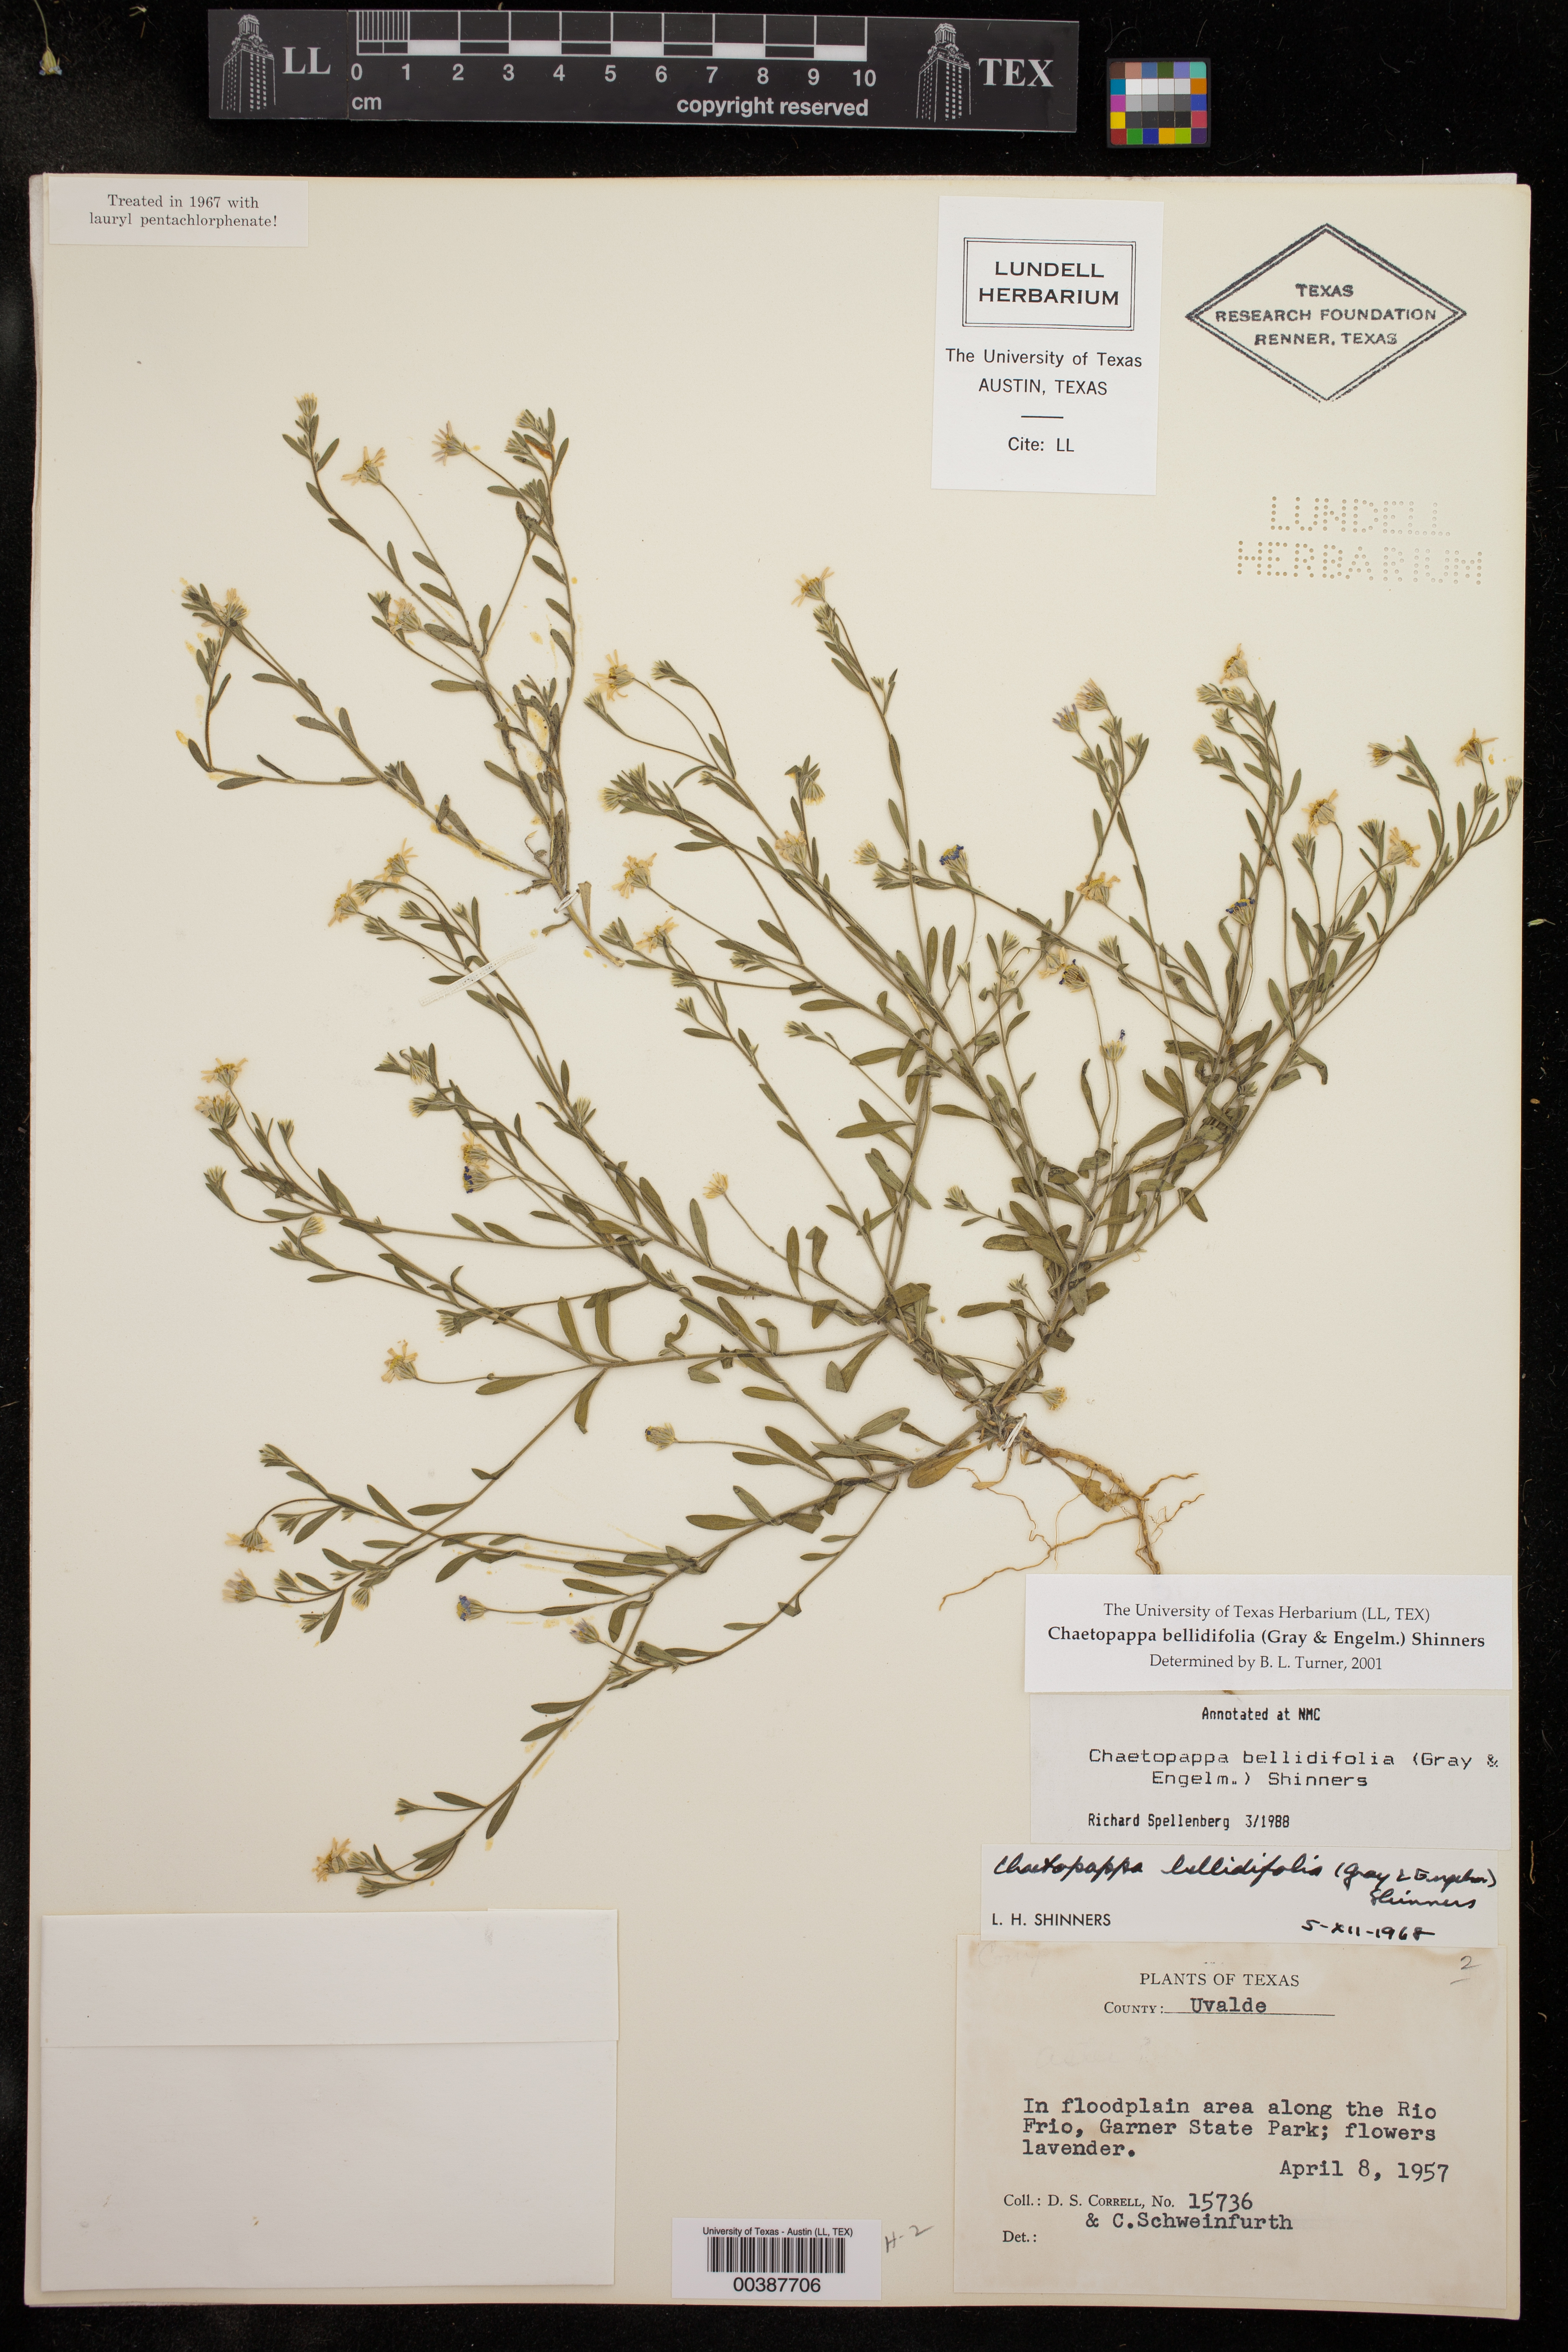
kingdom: Plantae
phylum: Tracheophyta
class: Magnoliopsida
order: Asterales
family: Asteraceae
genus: Chaetopappa
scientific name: Chaetopappa bellidifolia
